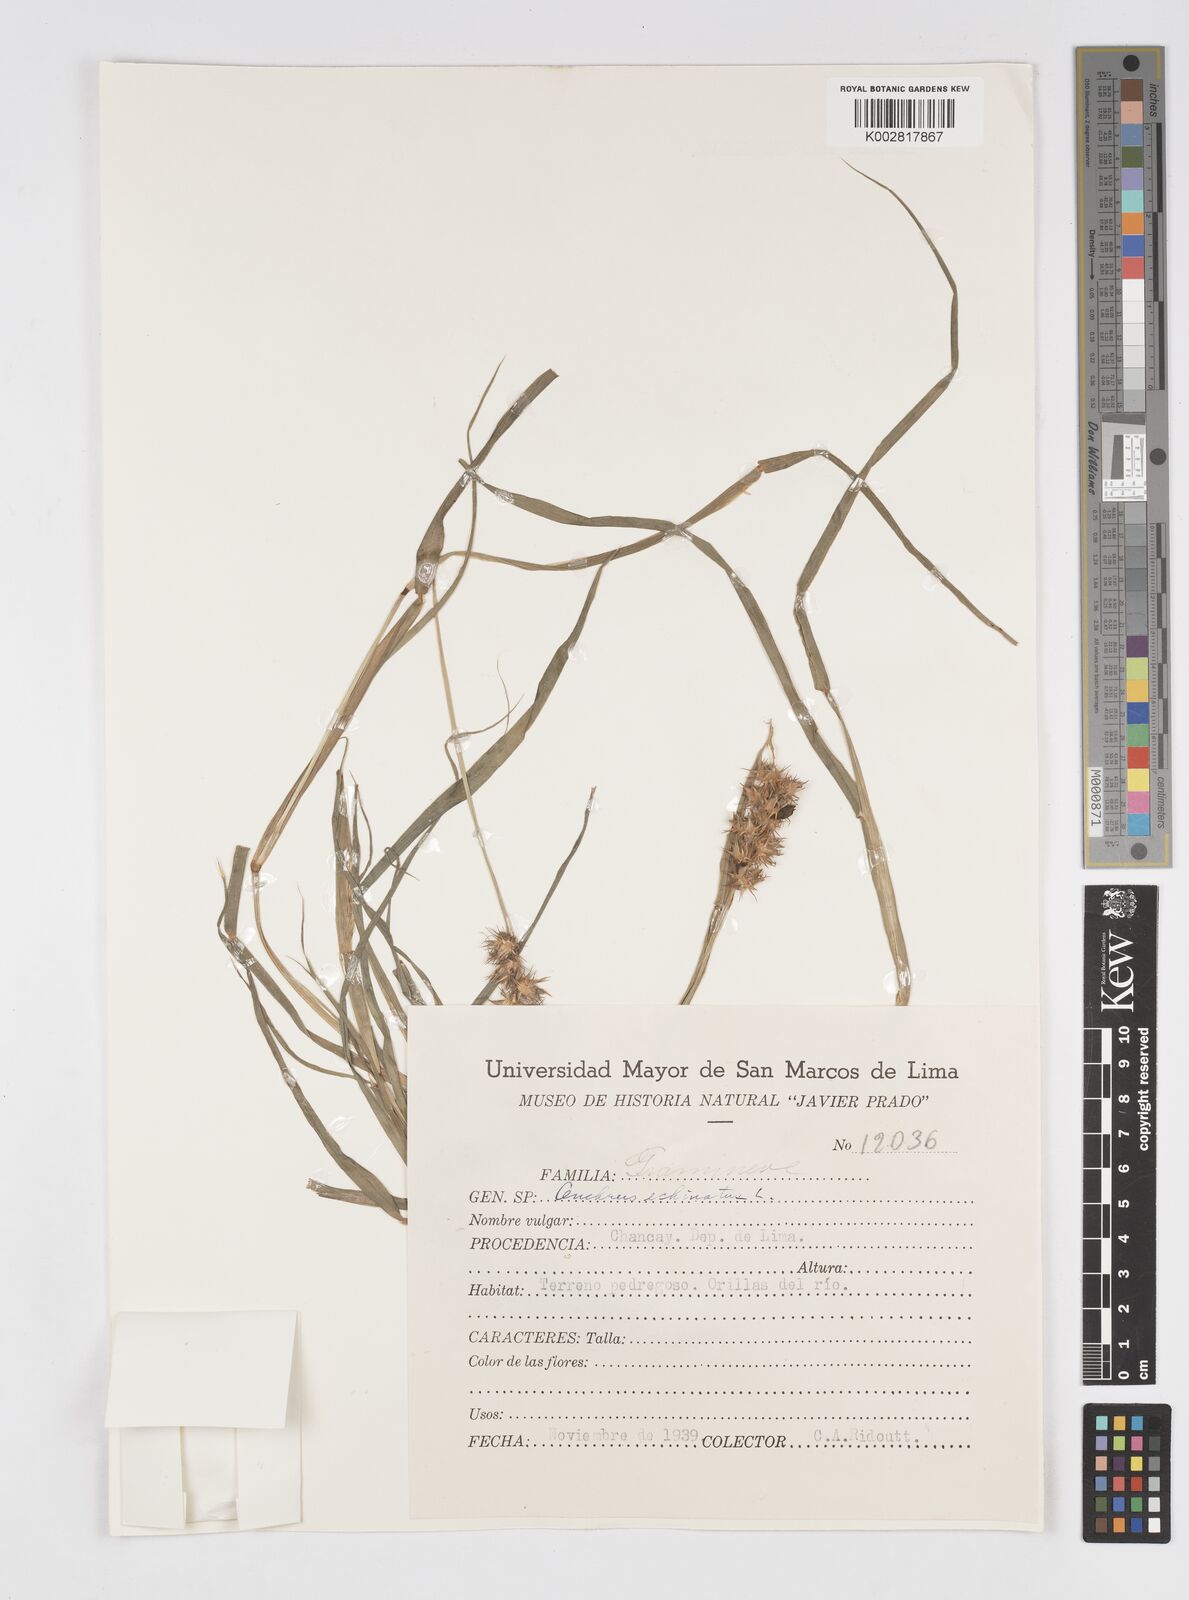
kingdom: Plantae
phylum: Tracheophyta
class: Liliopsida
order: Poales
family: Poaceae
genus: Cenchrus
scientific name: Cenchrus
